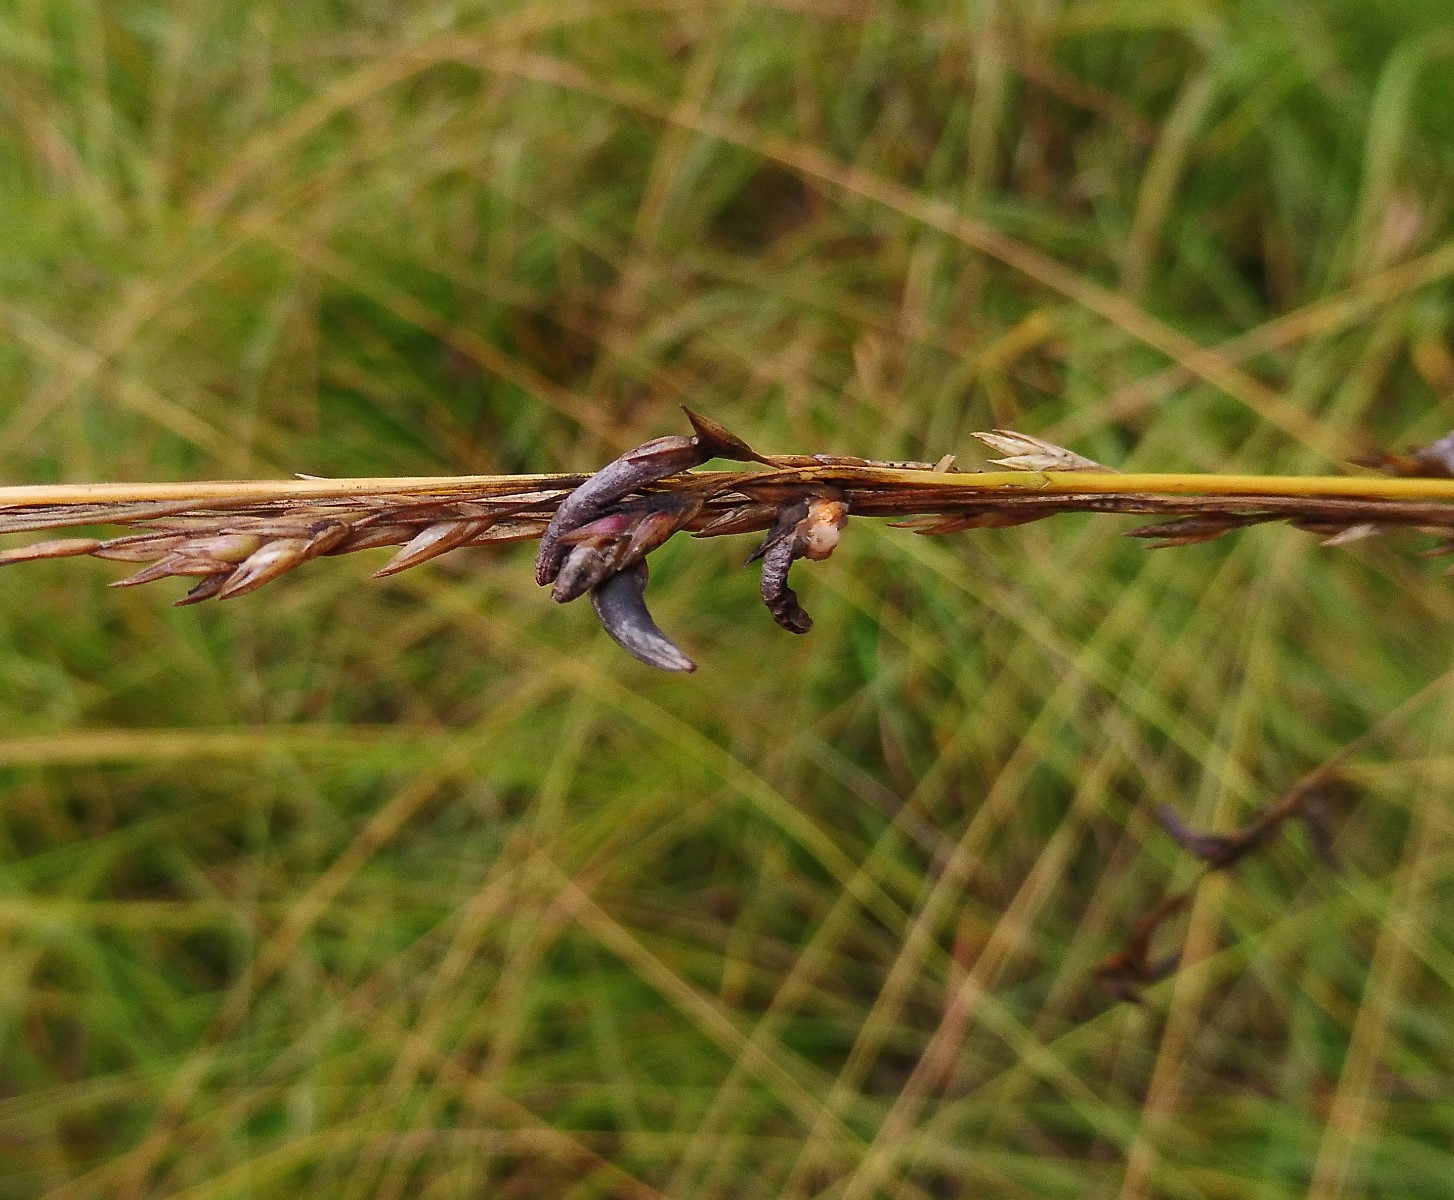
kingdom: Fungi
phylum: Ascomycota
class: Sordariomycetes
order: Hypocreales
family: Clavicipitaceae
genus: Claviceps
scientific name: Claviceps purpurea
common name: almindelig meldrøjer
